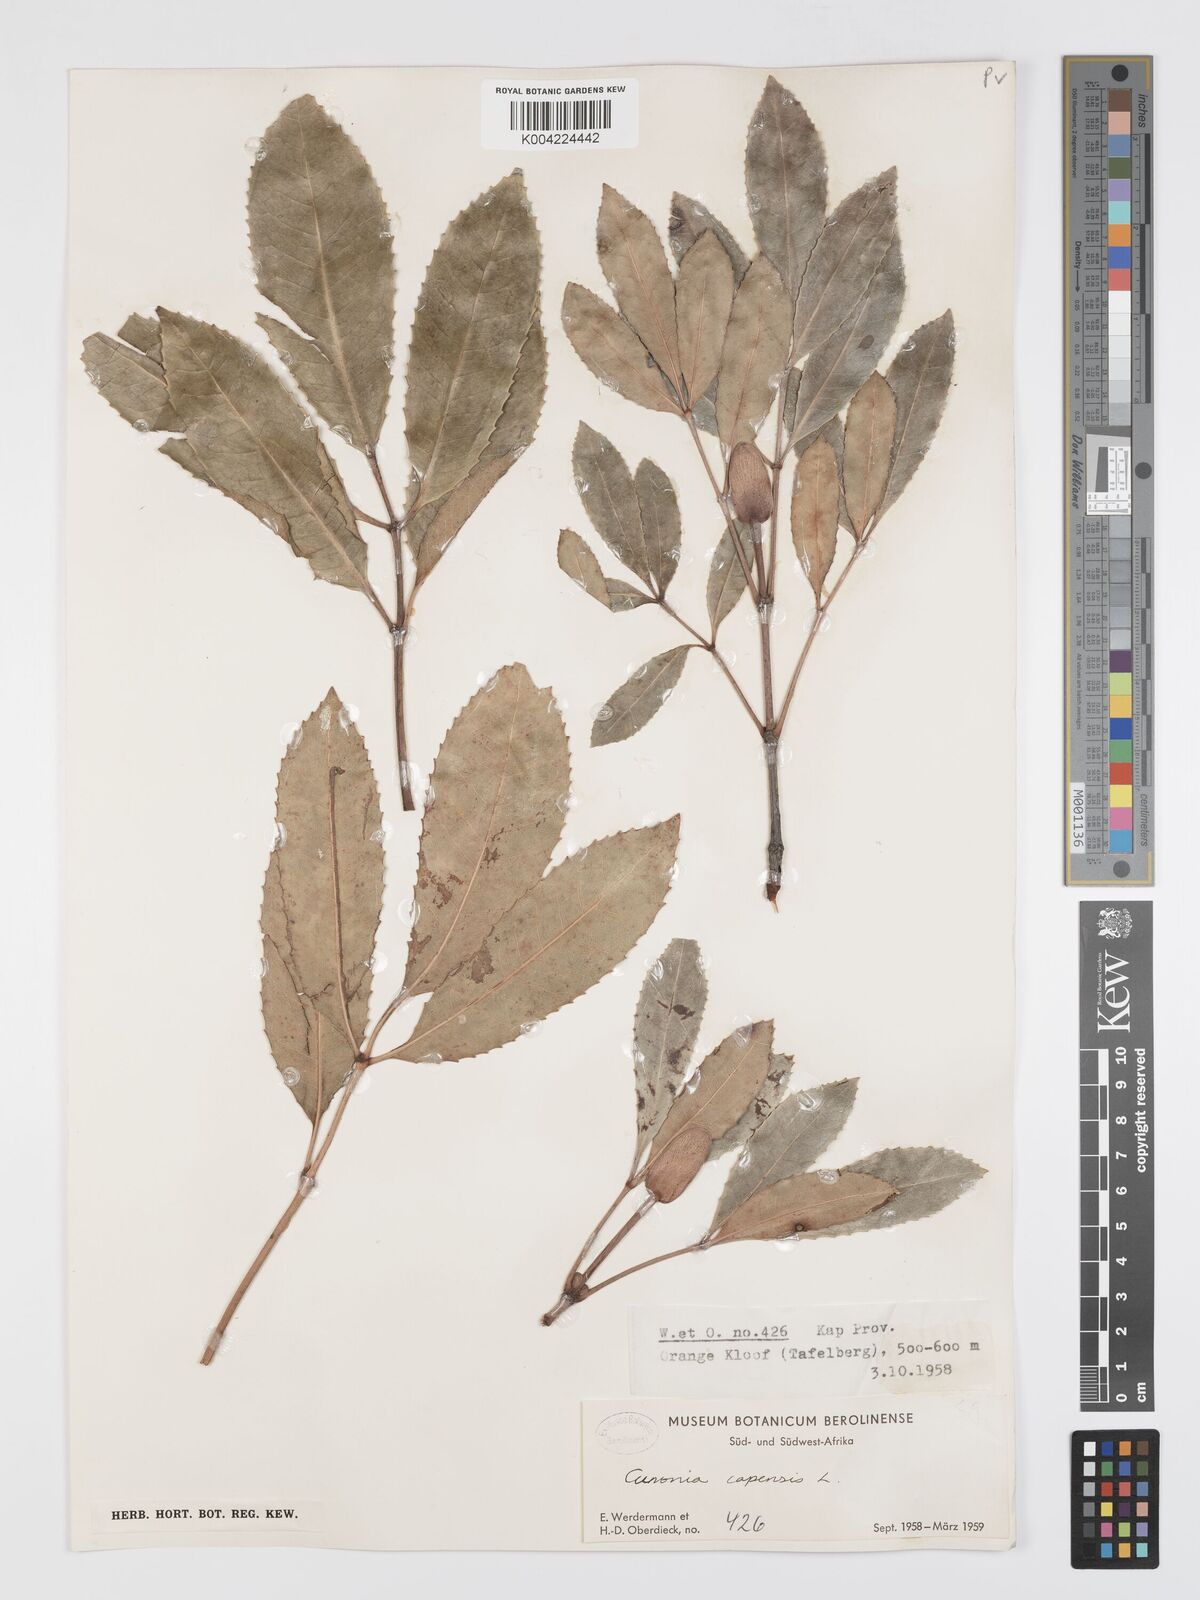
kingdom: Plantae
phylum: Tracheophyta
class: Magnoliopsida
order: Oxalidales
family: Cunoniaceae
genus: Cunonia
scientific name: Cunonia capensis
